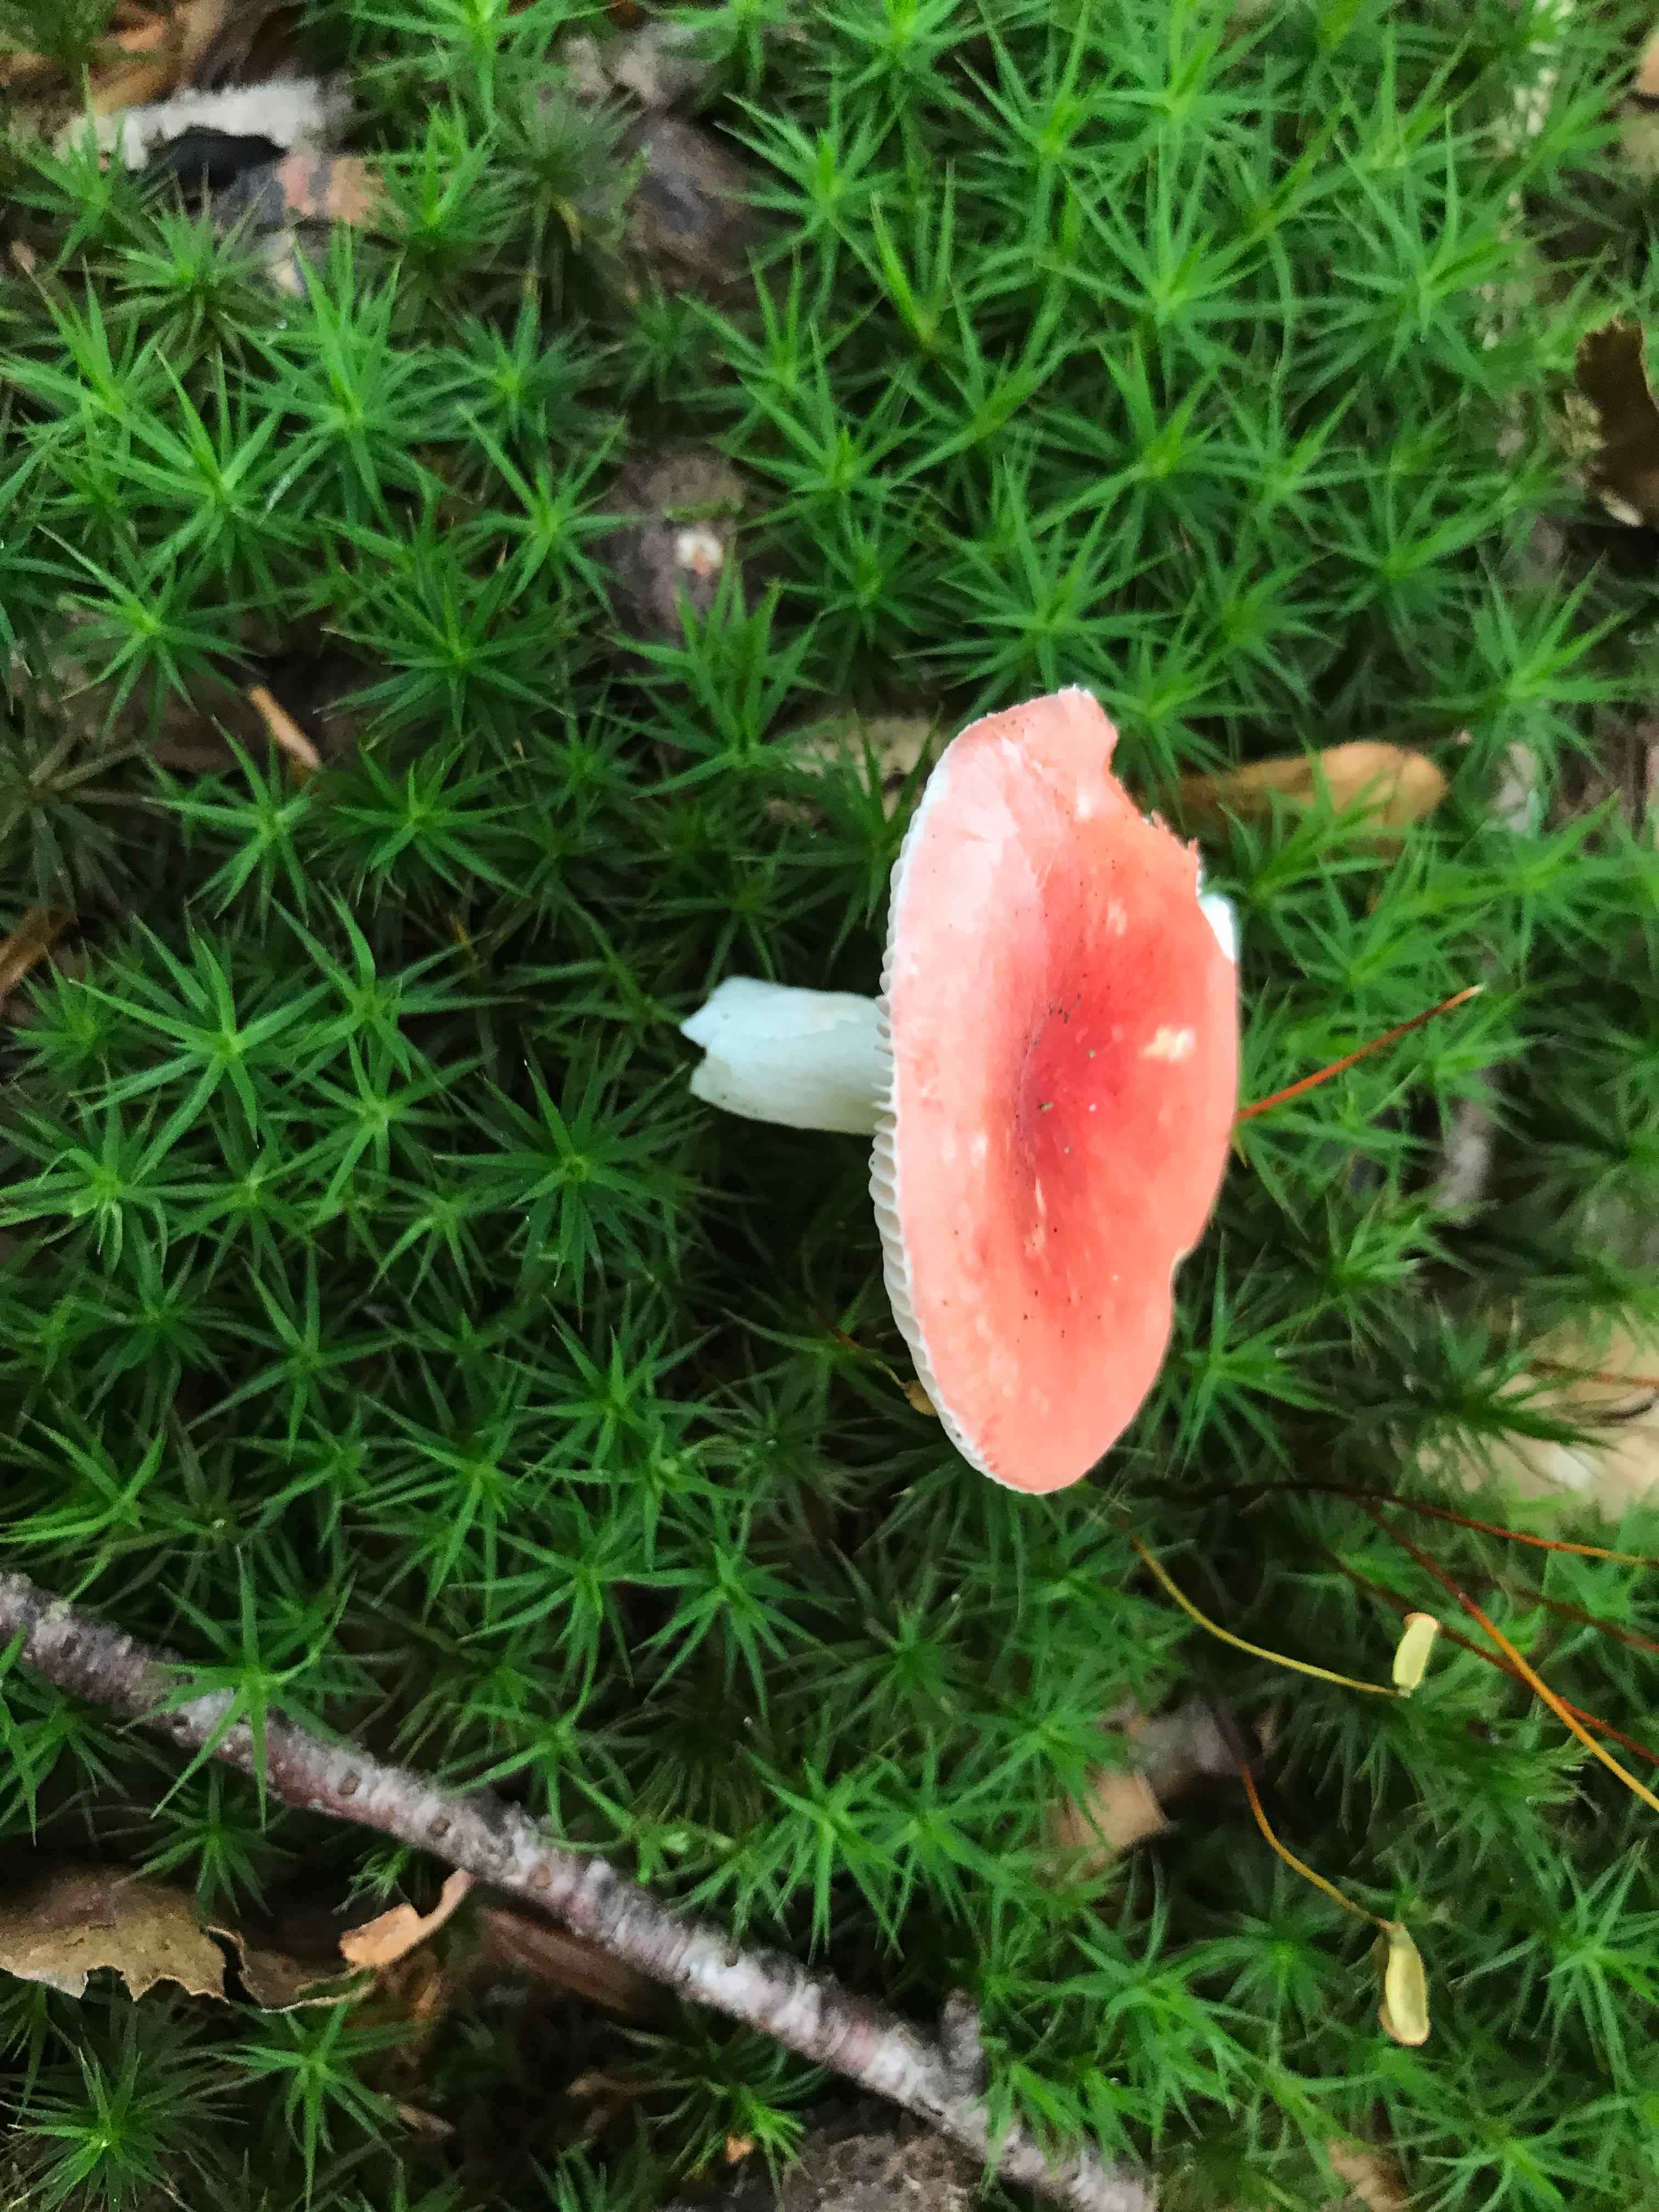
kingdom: Fungi
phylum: Basidiomycota
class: Agaricomycetes
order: Russulales
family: Russulaceae
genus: Russula
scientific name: Russula nobilis
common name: lille gift-skørhat
